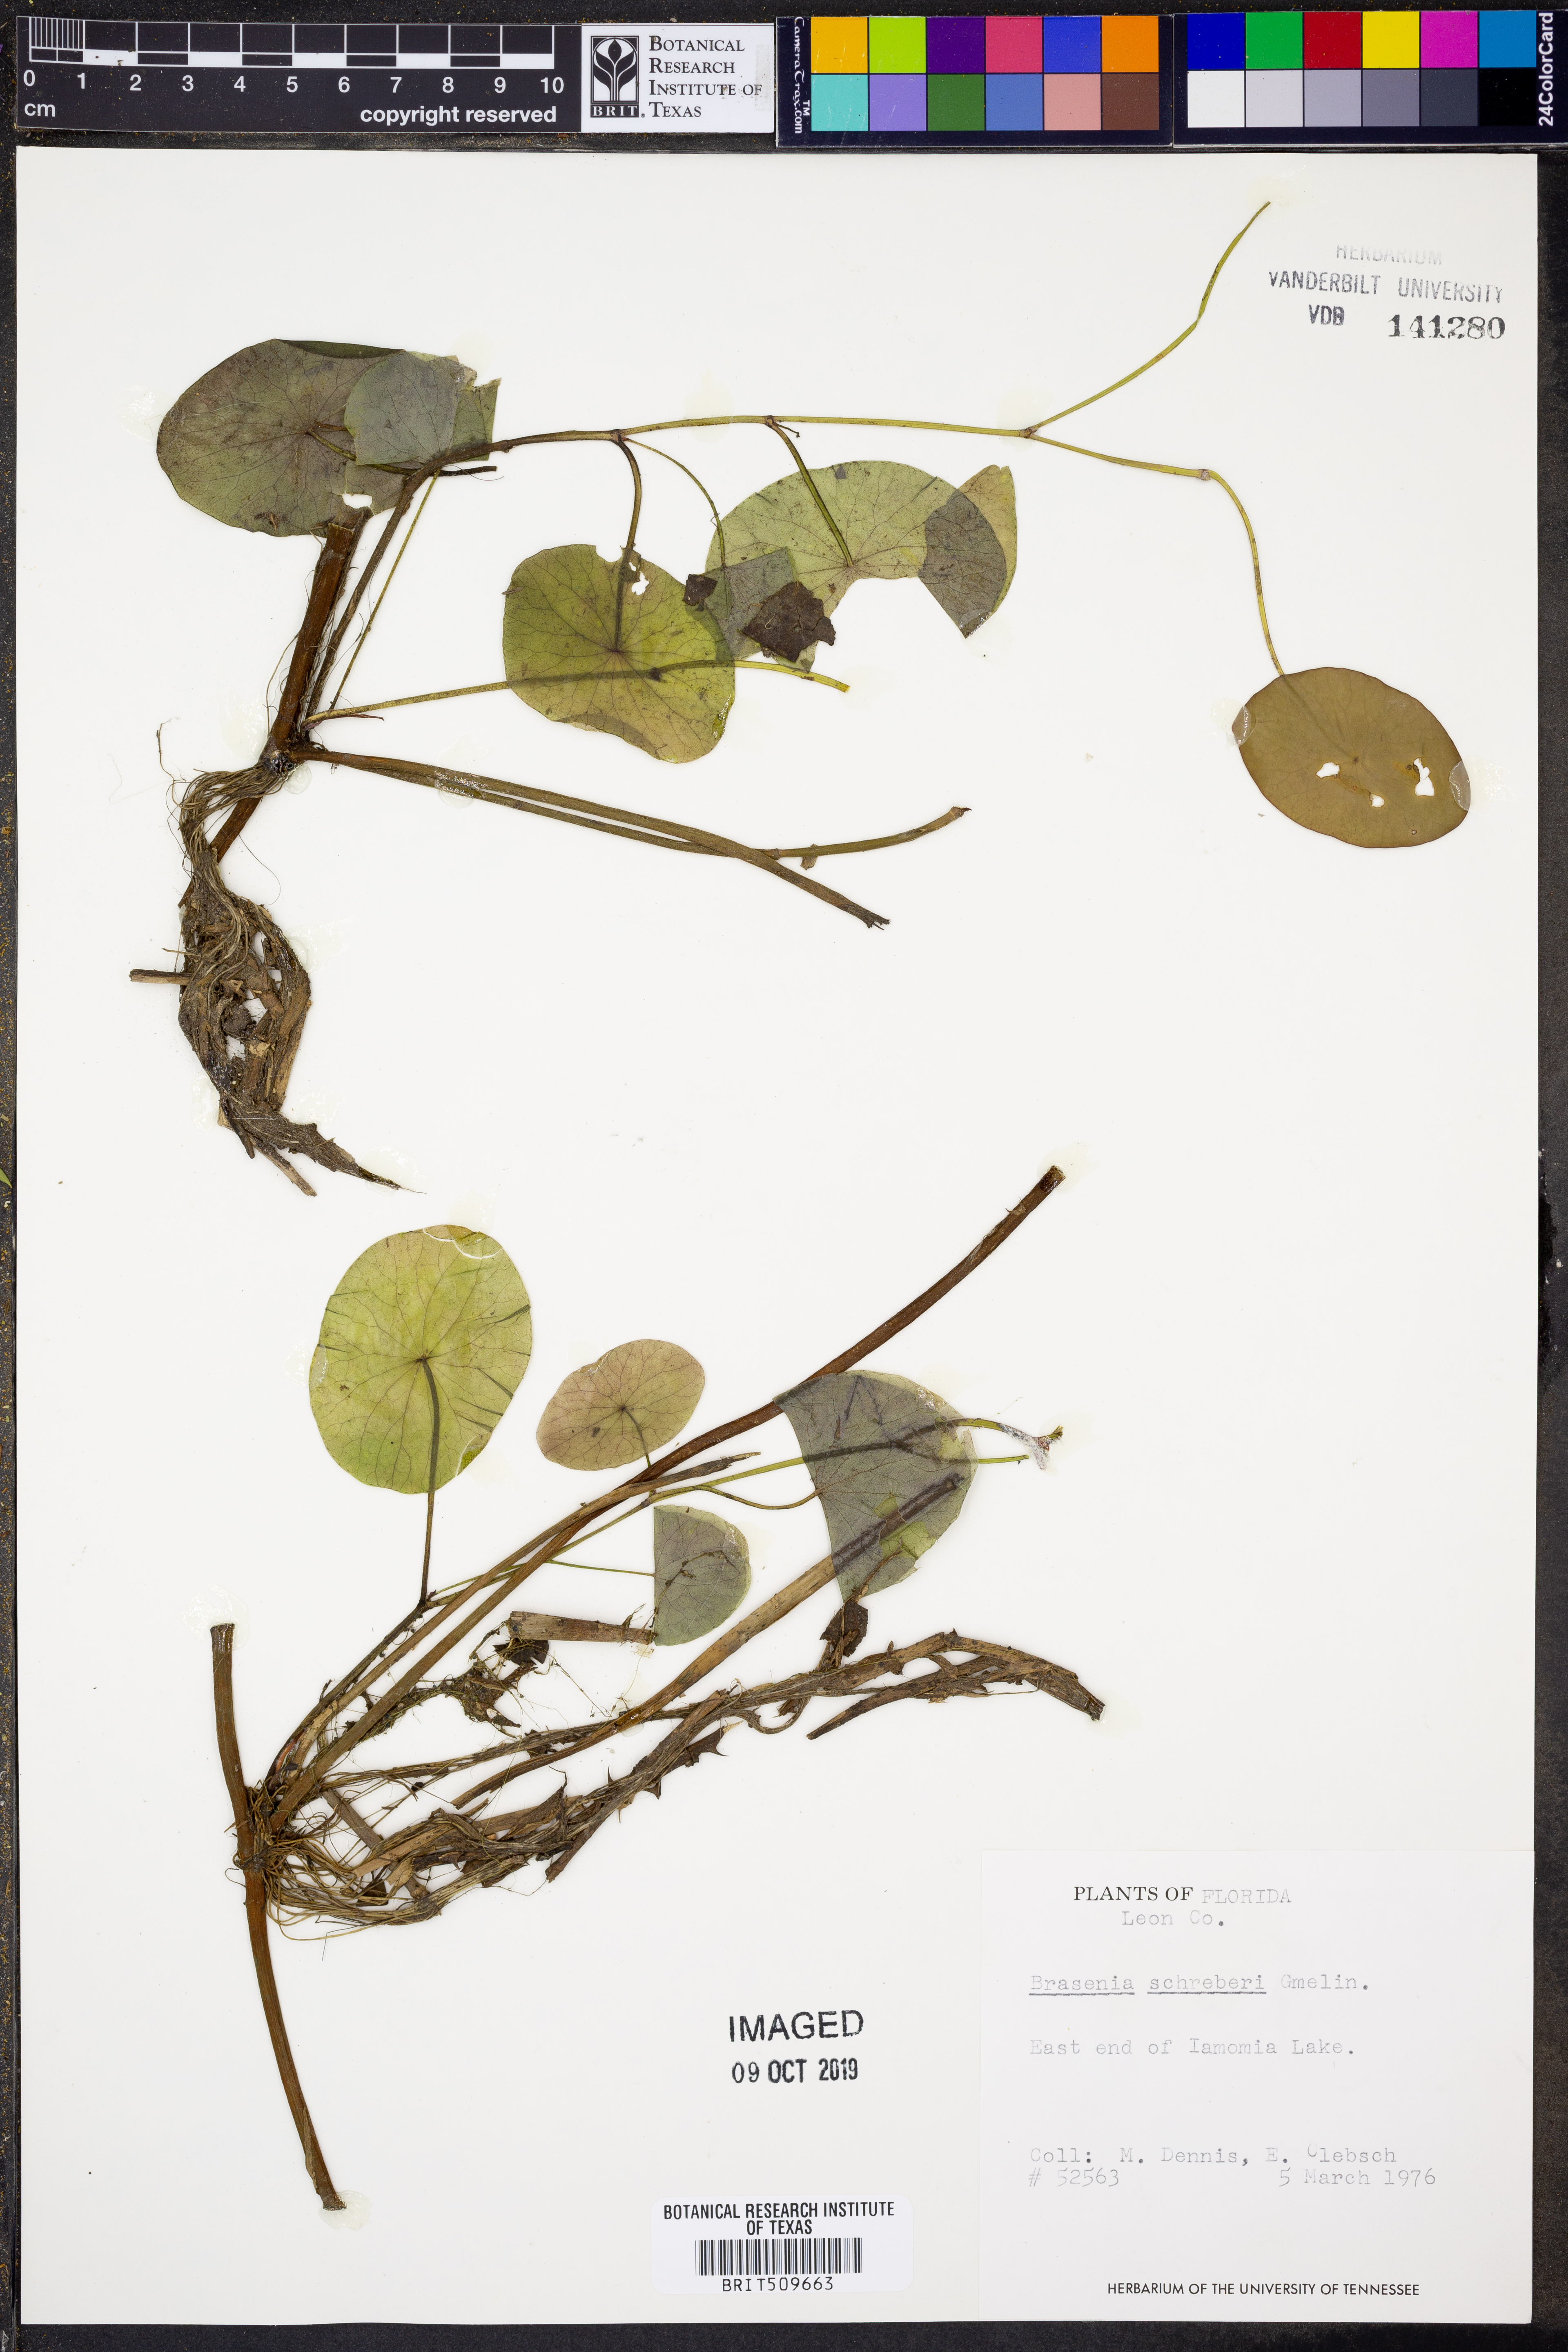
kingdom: Plantae
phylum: Tracheophyta
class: Magnoliopsida
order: Nymphaeales
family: Cabombaceae
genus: Brasenia
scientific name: Brasenia schreberi
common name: Water-shield
